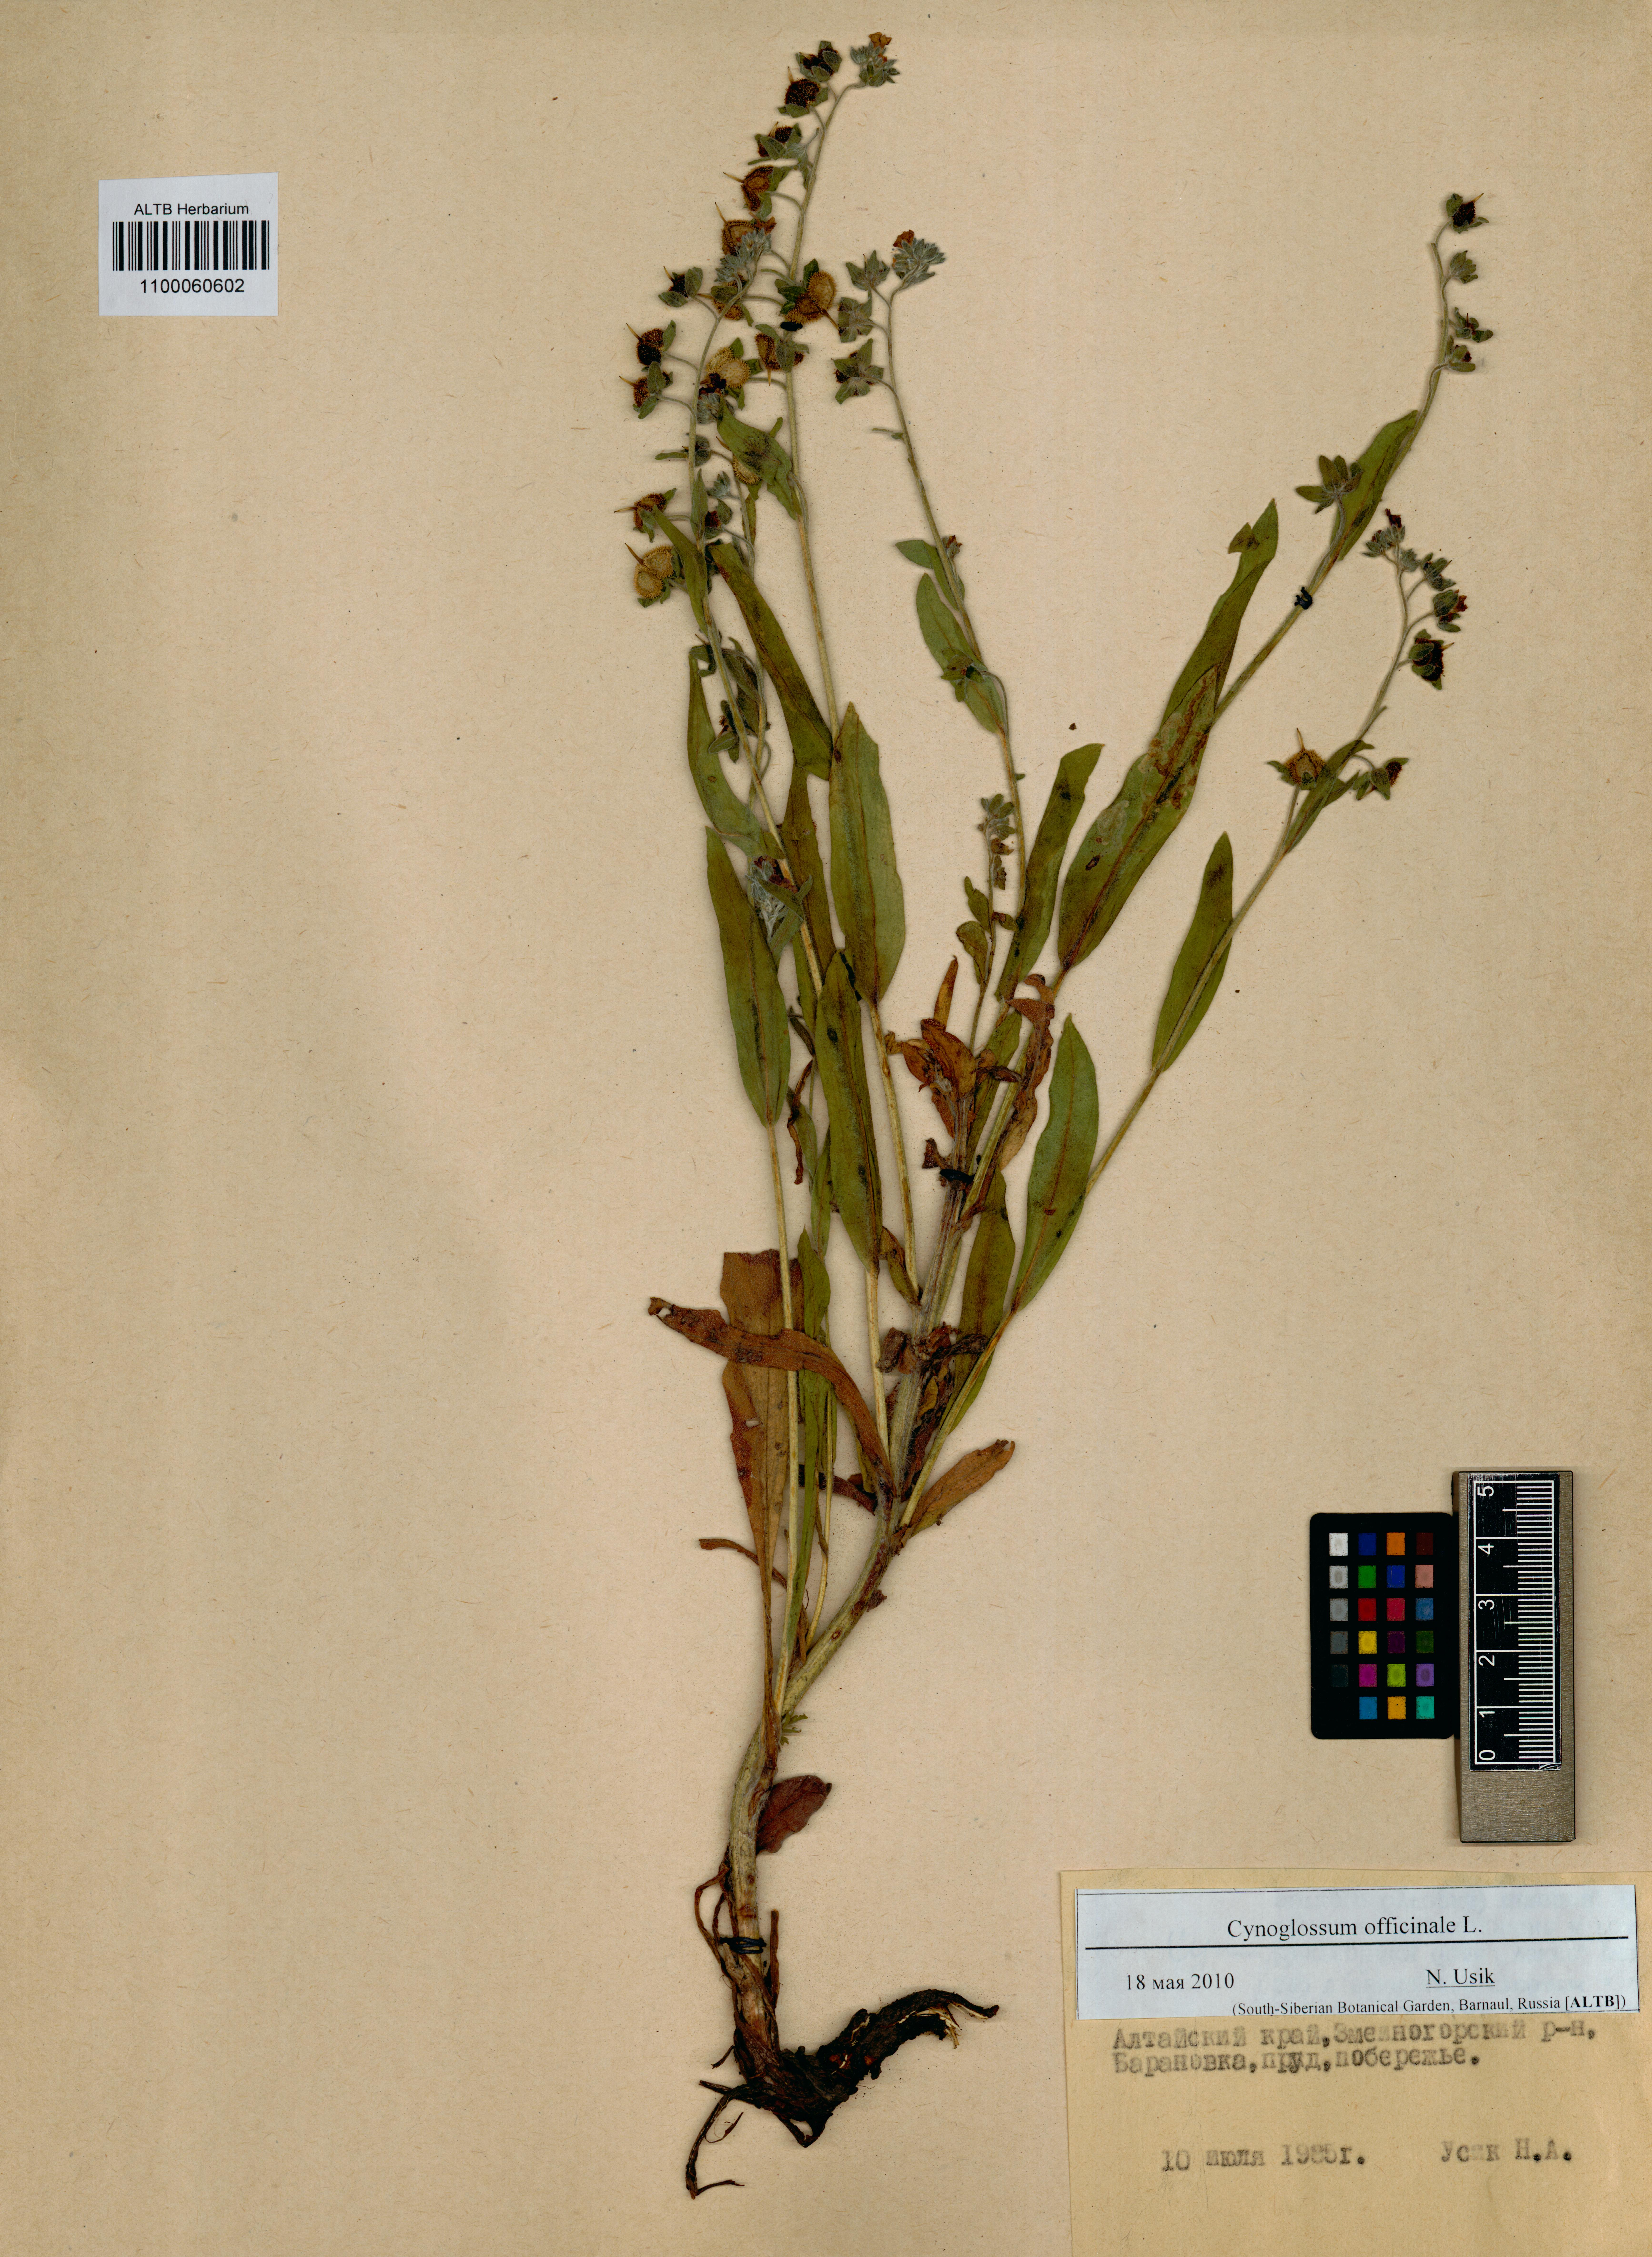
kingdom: Plantae
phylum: Tracheophyta
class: Magnoliopsida
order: Boraginales
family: Boraginaceae
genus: Cynoglossum
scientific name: Cynoglossum officinale
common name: Hound's-tongue
